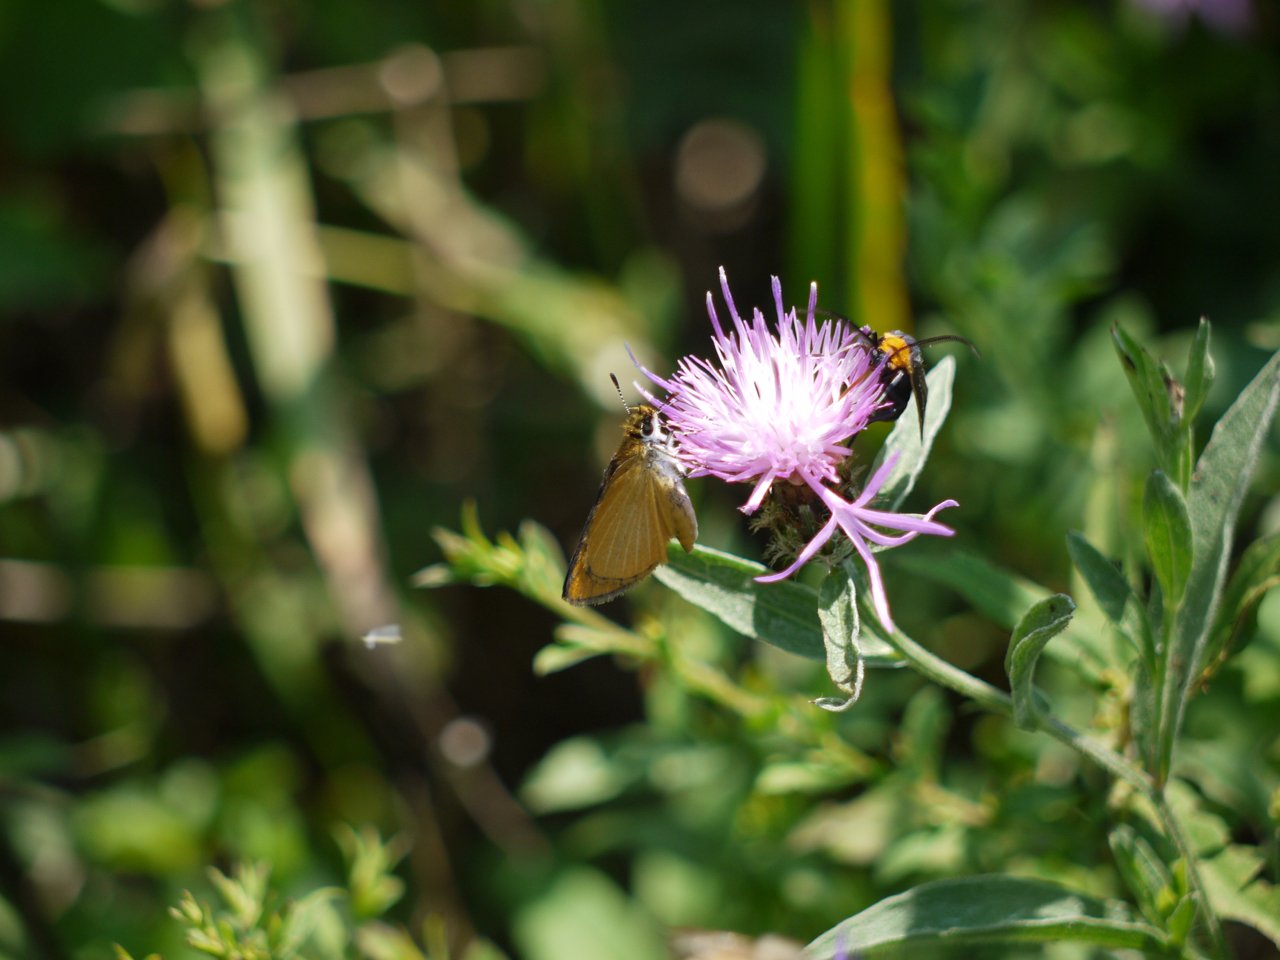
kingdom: Animalia
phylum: Arthropoda
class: Insecta
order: Lepidoptera
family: Hesperiidae
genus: Ancyloxypha
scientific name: Ancyloxypha numitor
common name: Least Skipper
